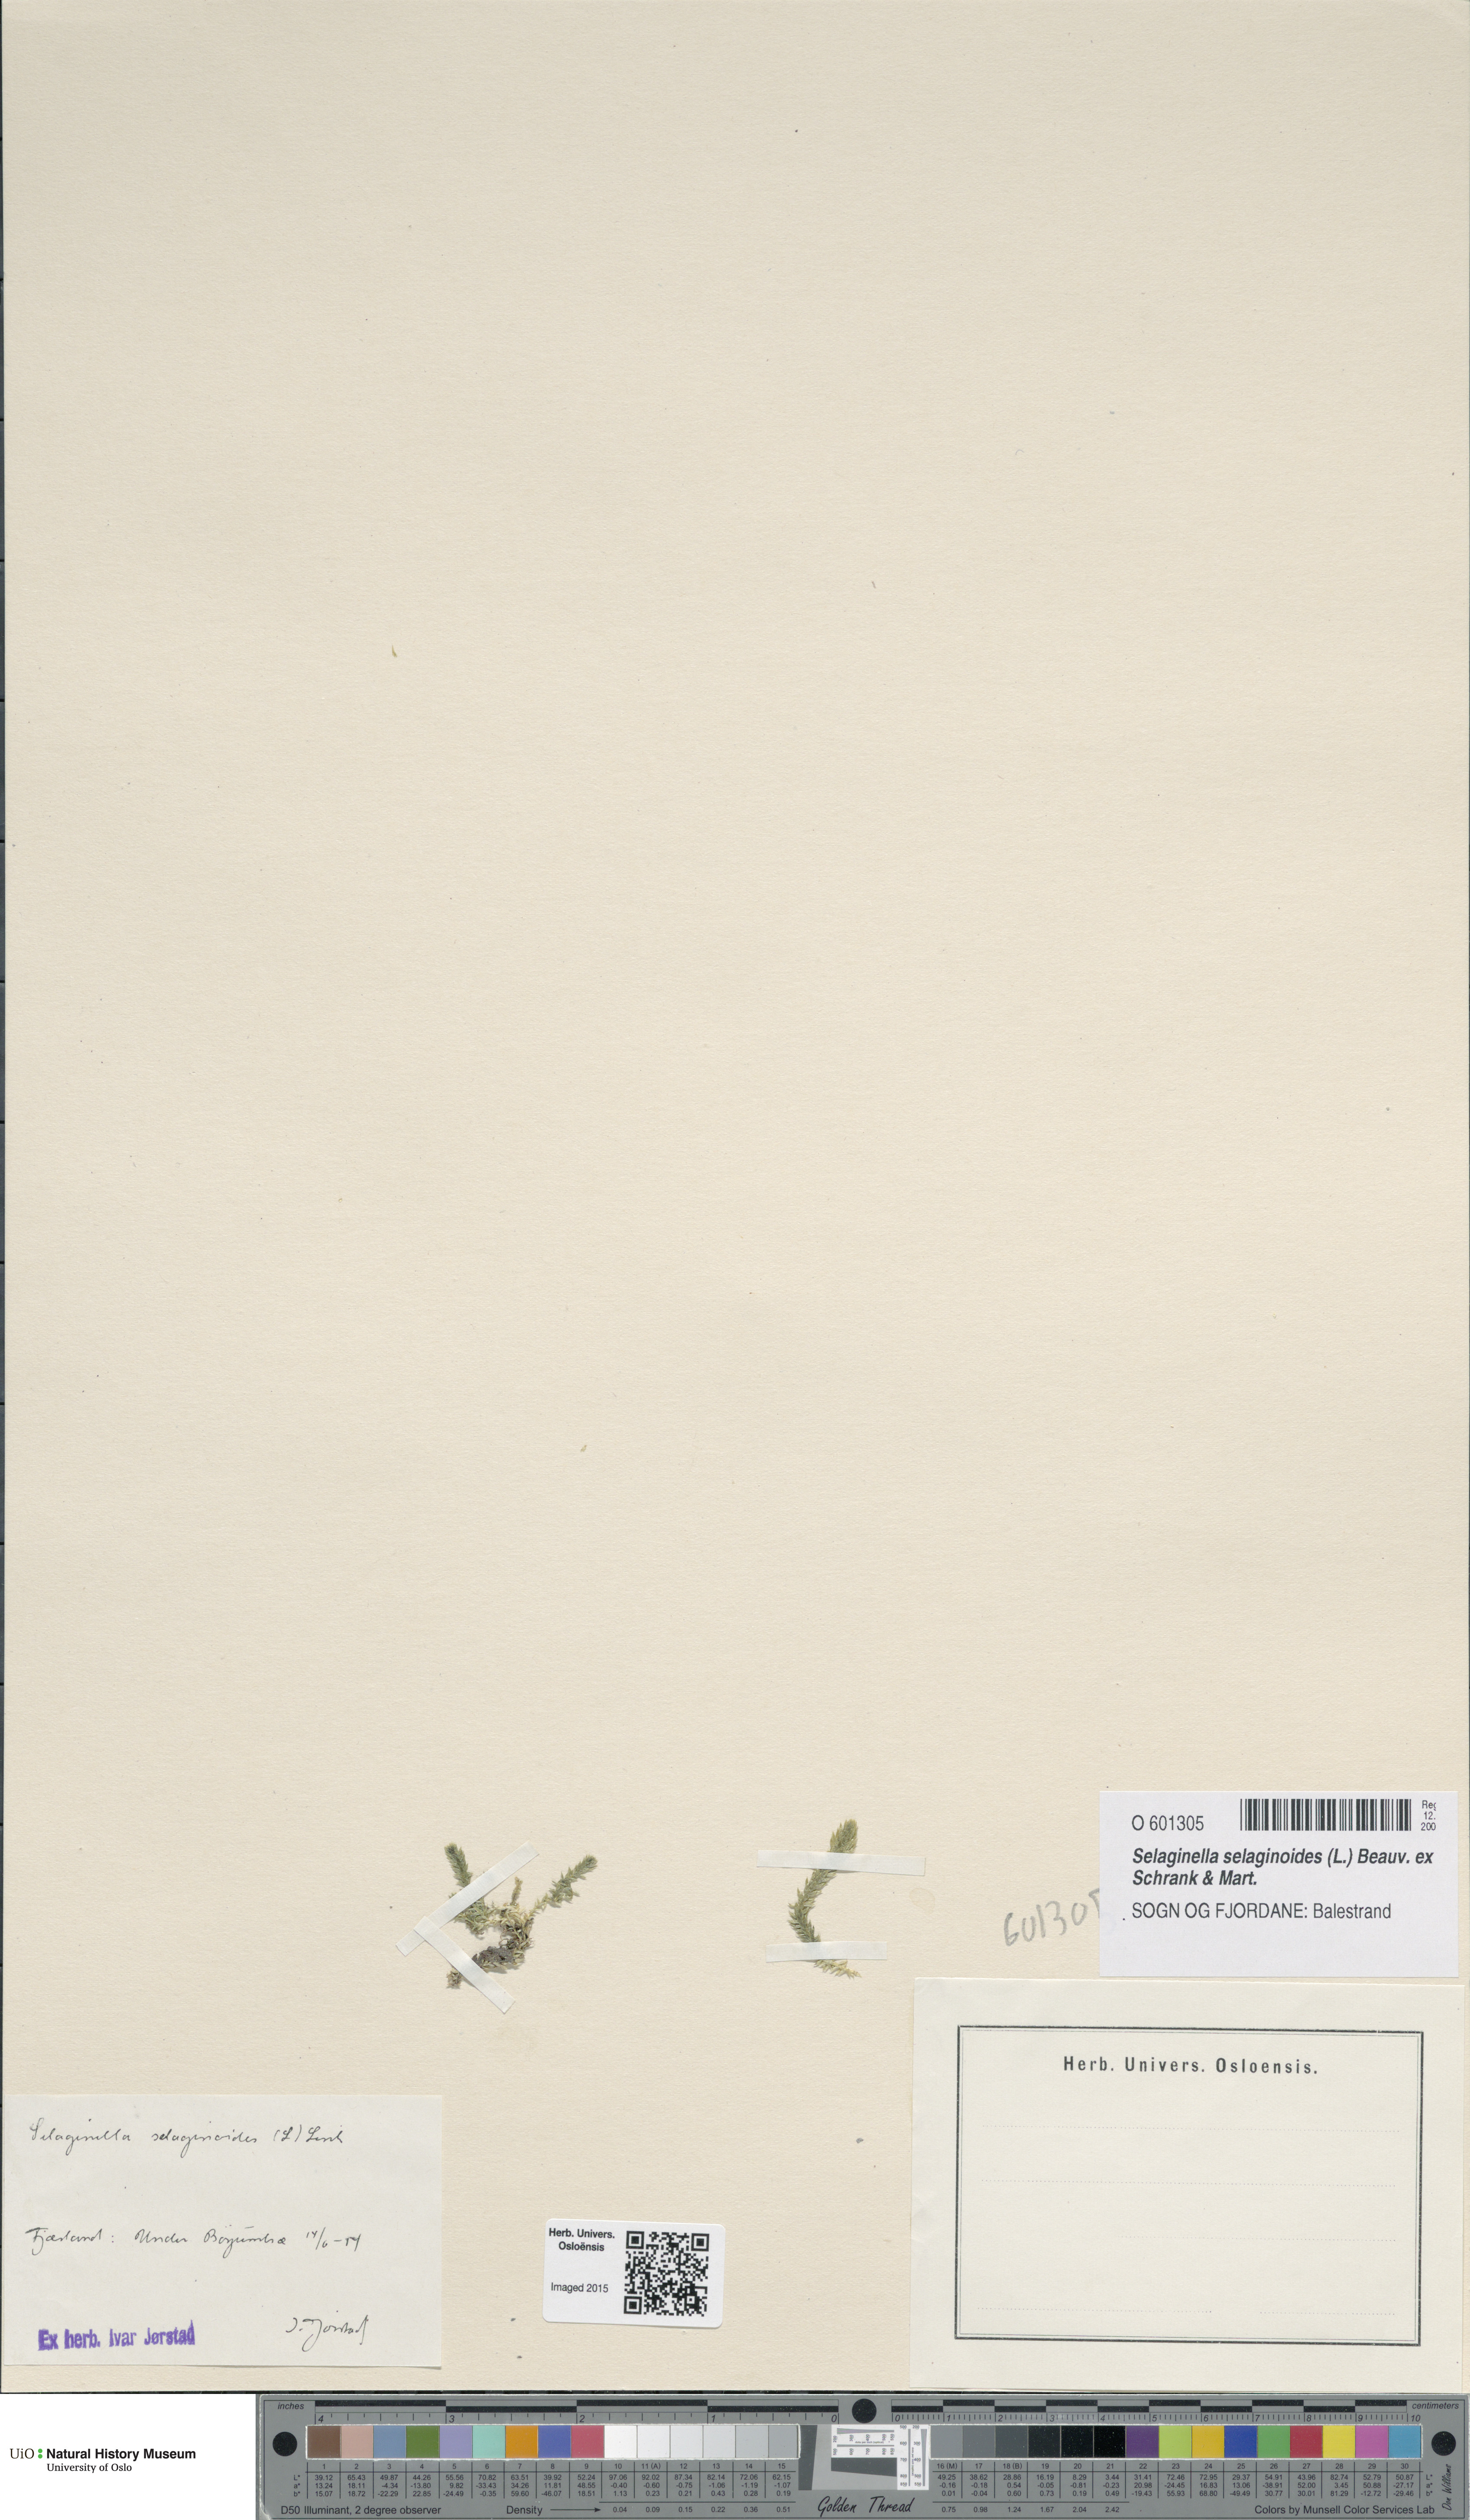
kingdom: Plantae
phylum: Tracheophyta
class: Lycopodiopsida
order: Selaginellales
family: Selaginellaceae
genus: Selaginella
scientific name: Selaginella selaginoides
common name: Prickly mountain-moss
